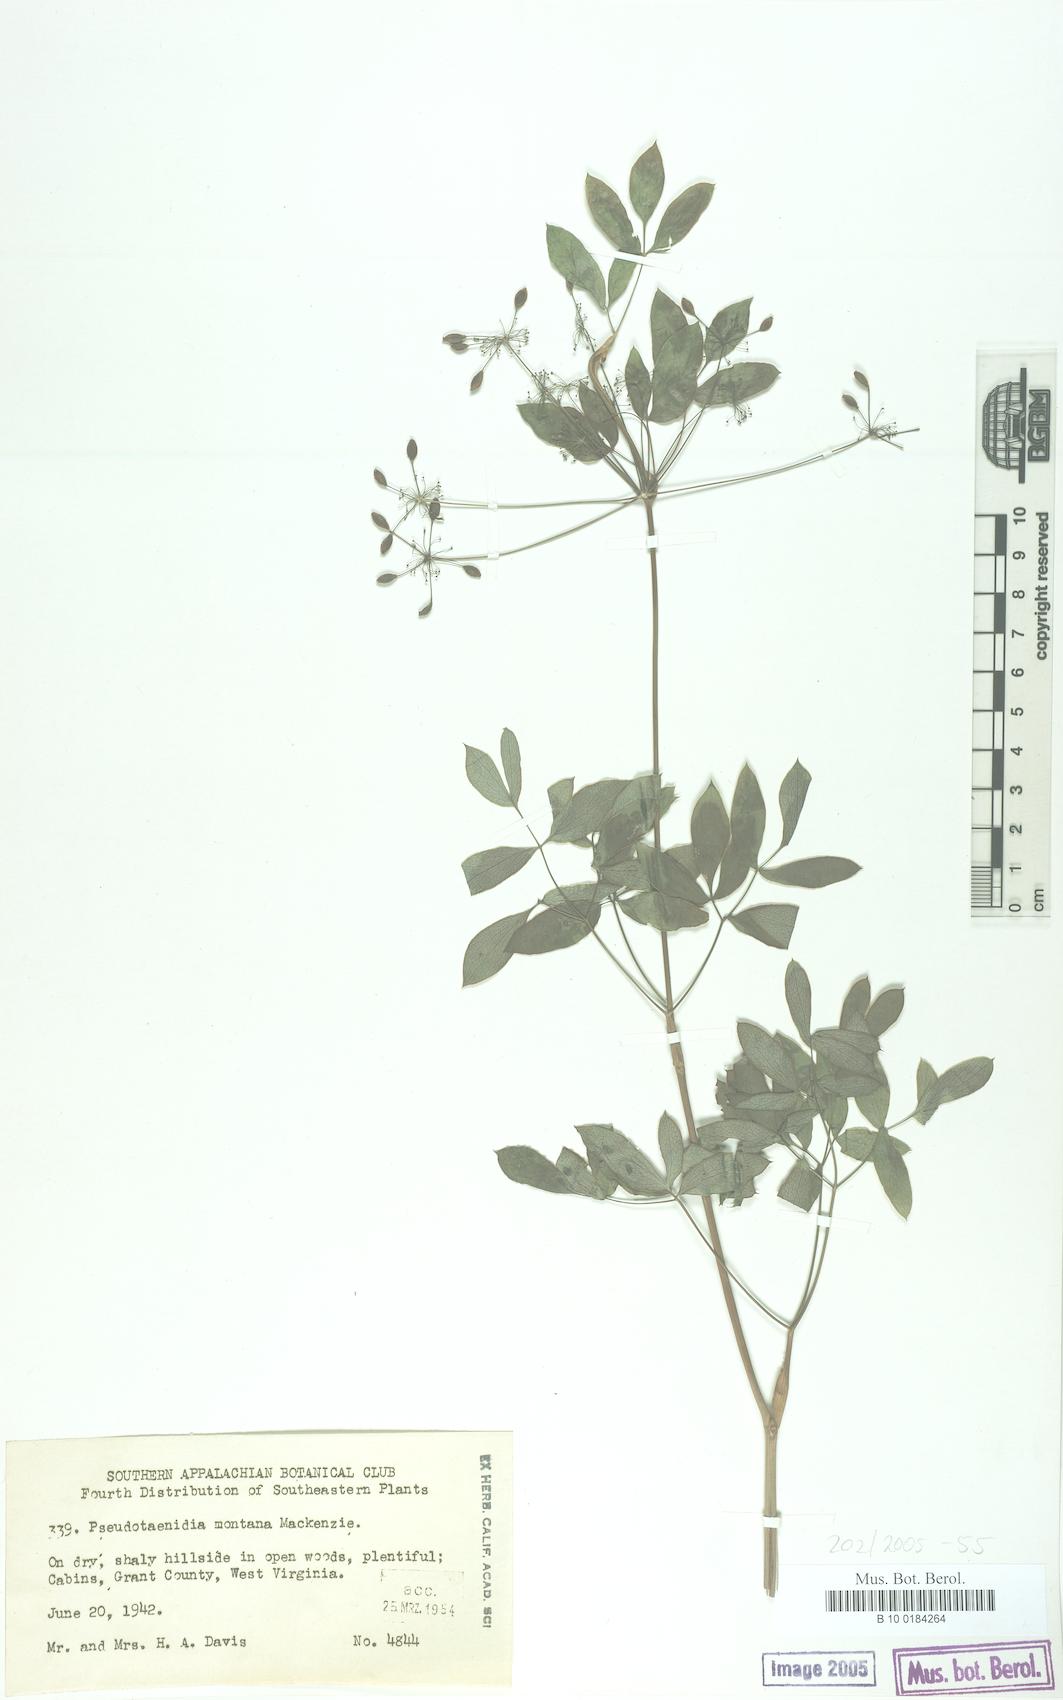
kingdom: Plantae
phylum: Tracheophyta
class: Magnoliopsida
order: Apiales
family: Apiaceae
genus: Taenidia
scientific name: Taenidia montana
